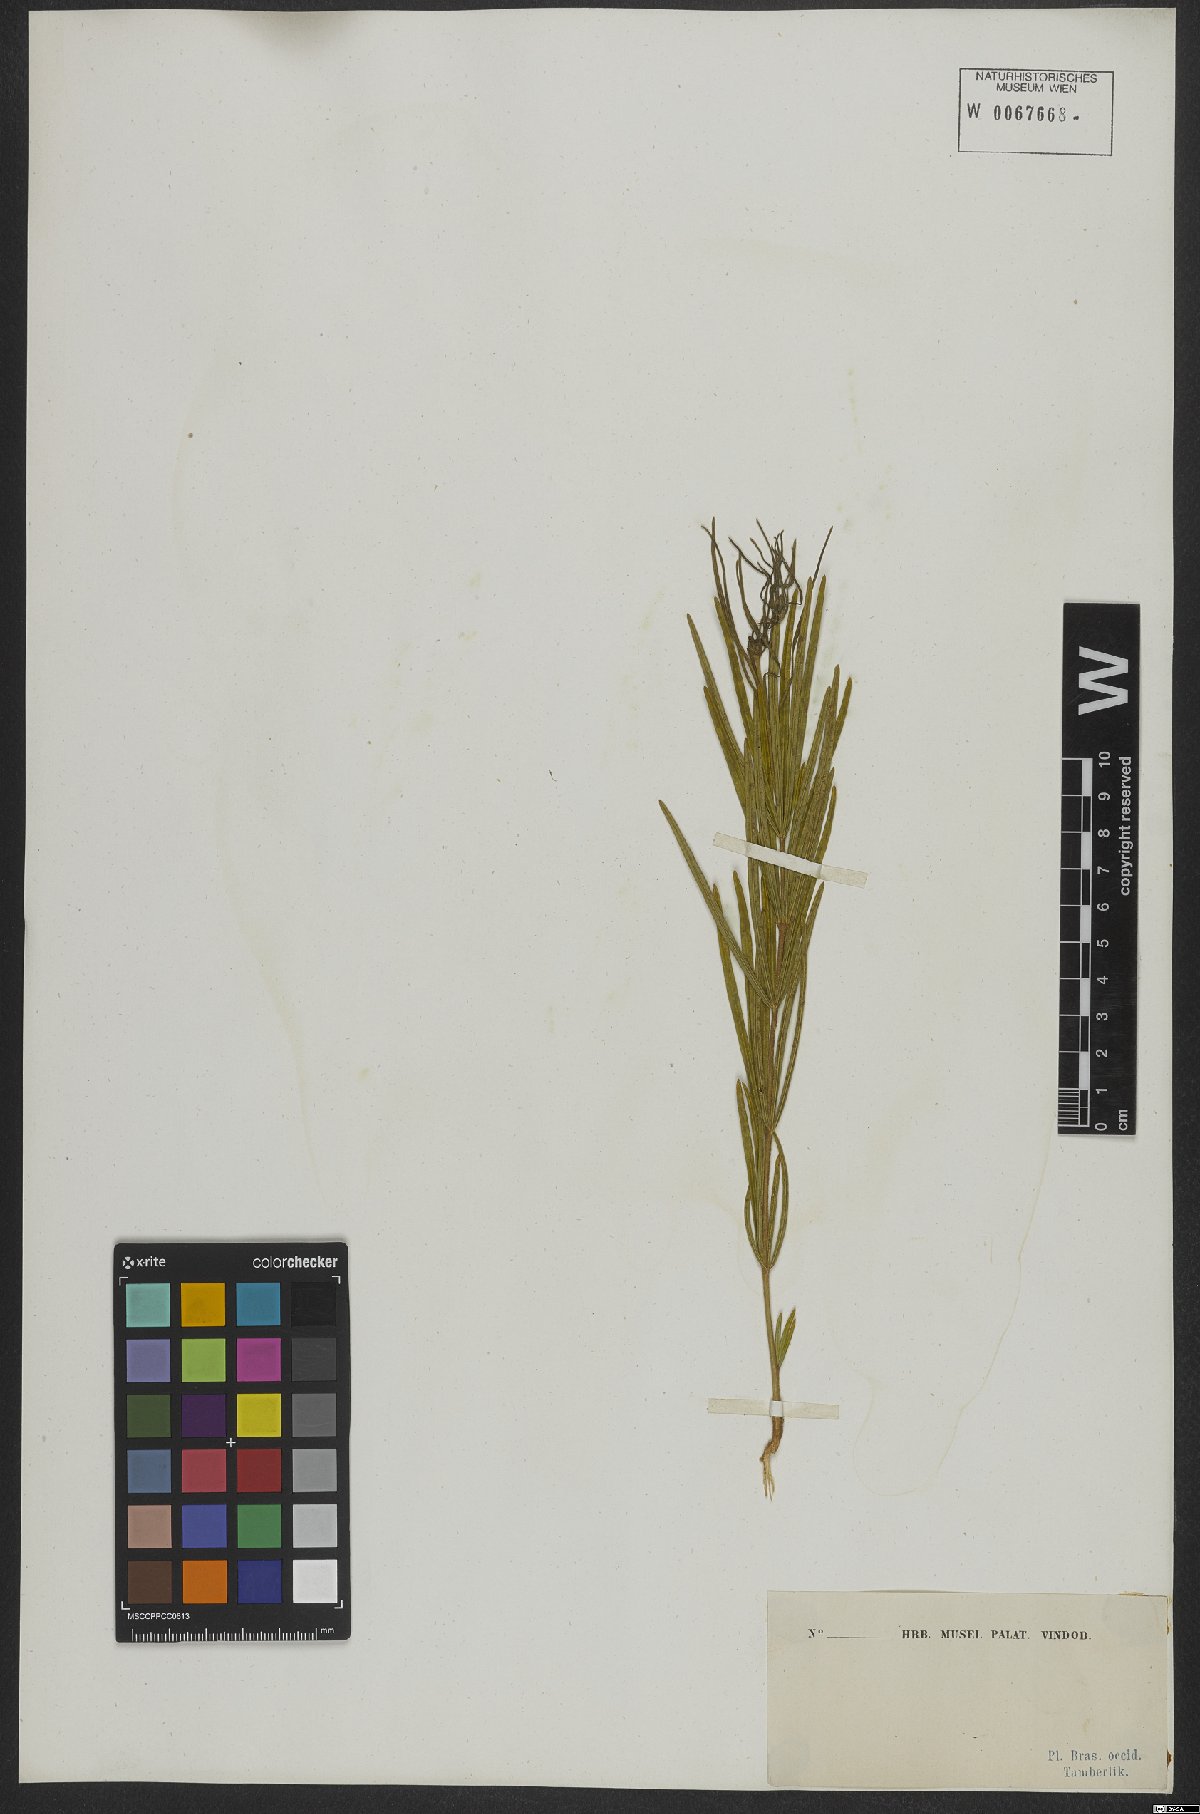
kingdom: Plantae
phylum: Tracheophyta
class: Magnoliopsida
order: Fabales
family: Fabaceae
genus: Eriosema
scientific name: Eriosema
